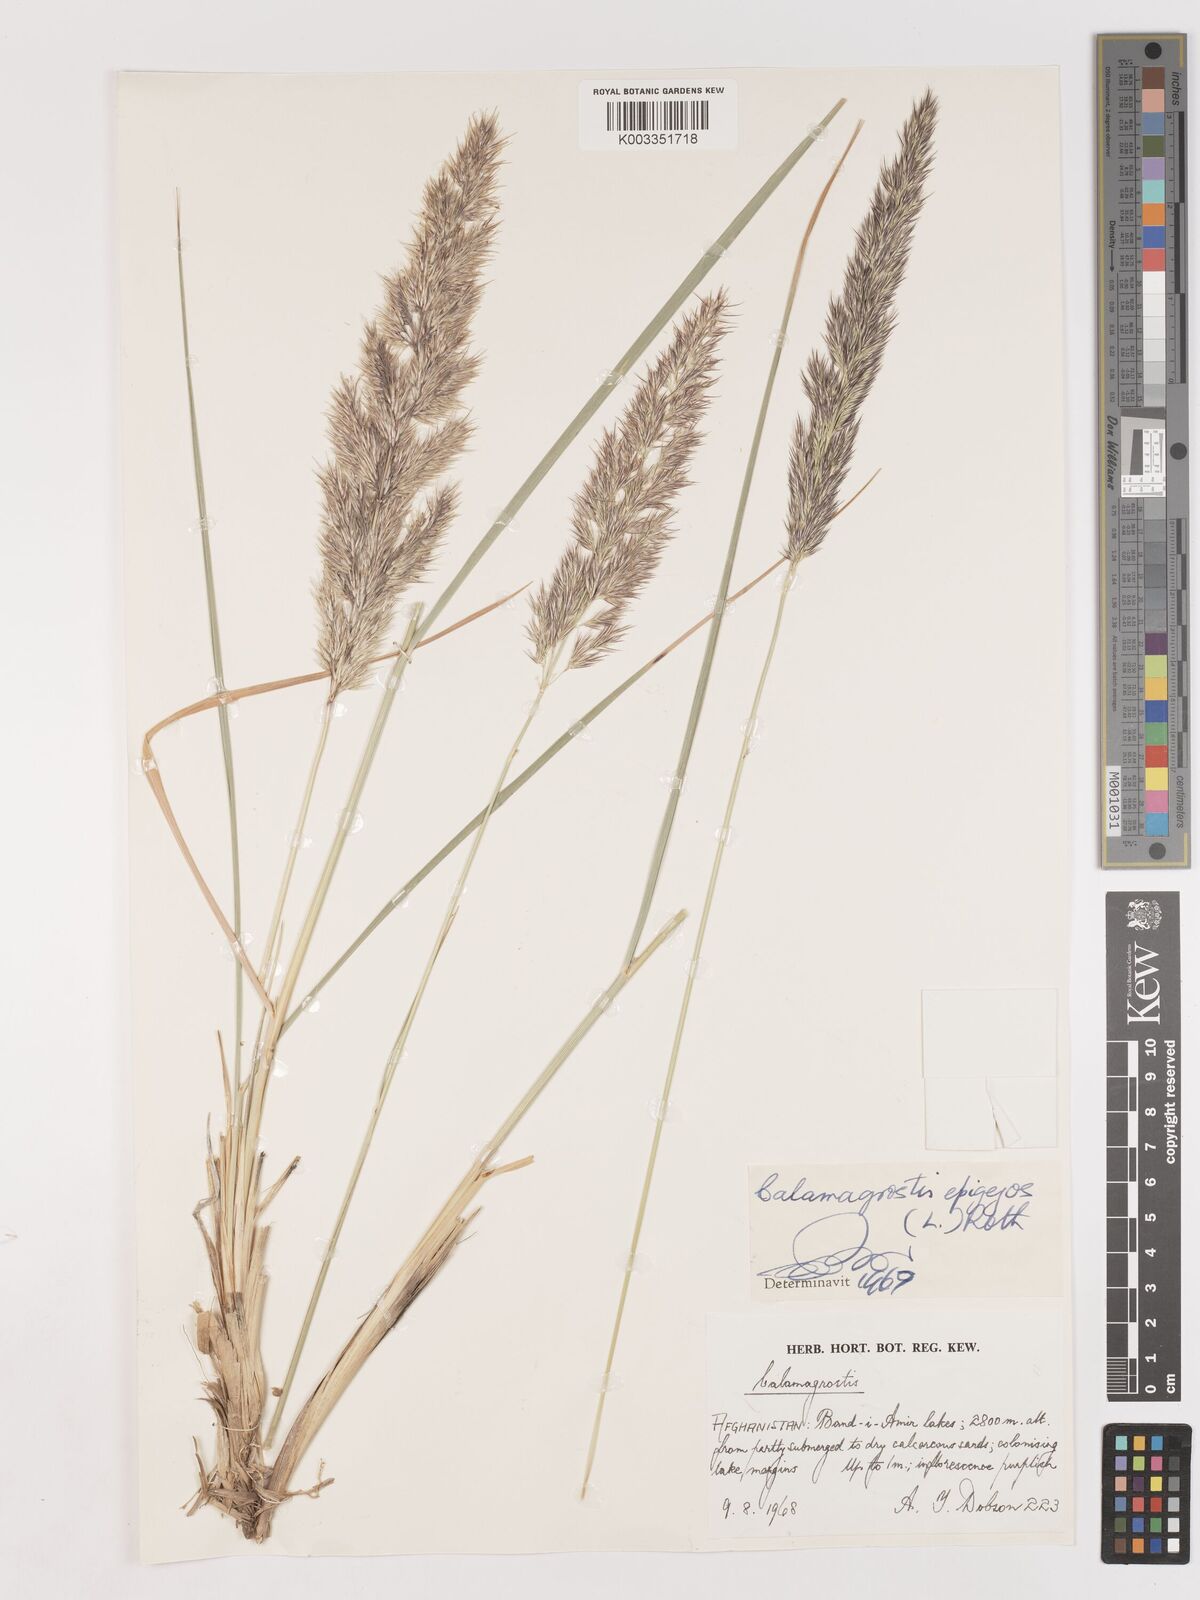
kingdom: Plantae
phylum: Tracheophyta
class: Liliopsida
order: Poales
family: Poaceae
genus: Calamagrostis
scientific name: Calamagrostis epigejos
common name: Wood small-reed
